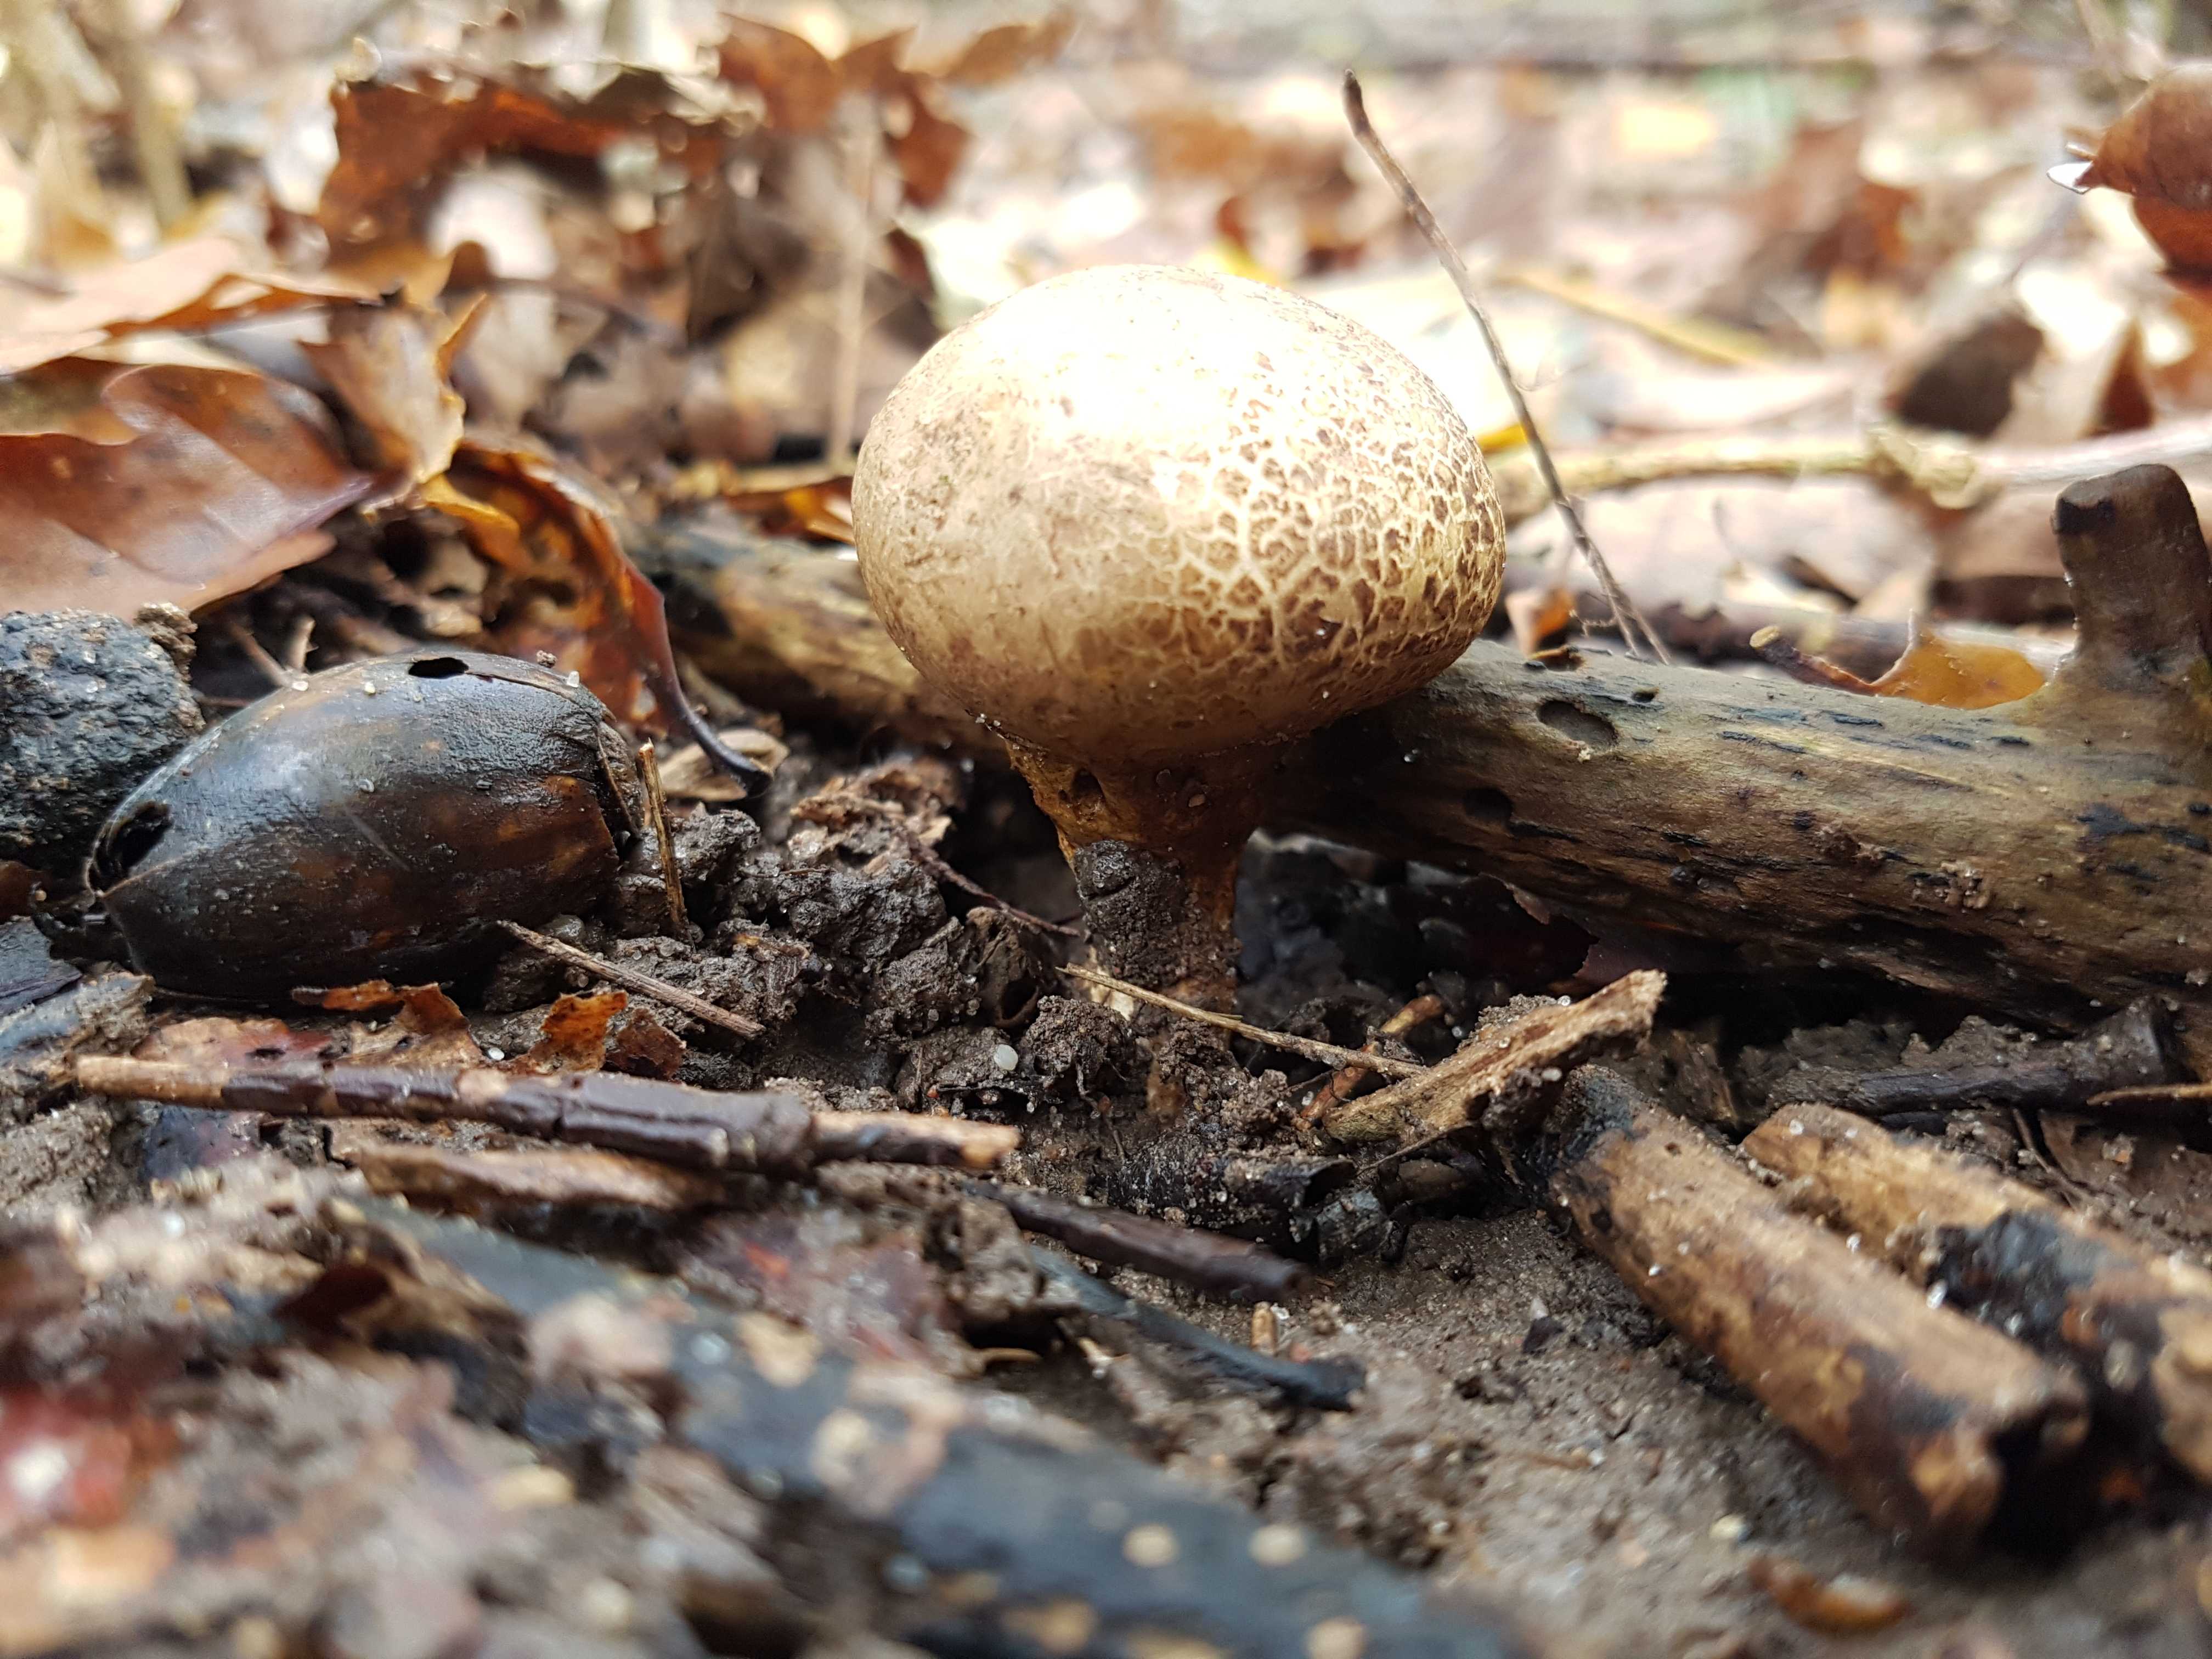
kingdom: Fungi
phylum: Basidiomycota
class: Agaricomycetes
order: Boletales
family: Sclerodermataceae
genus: Scleroderma
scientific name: Scleroderma
